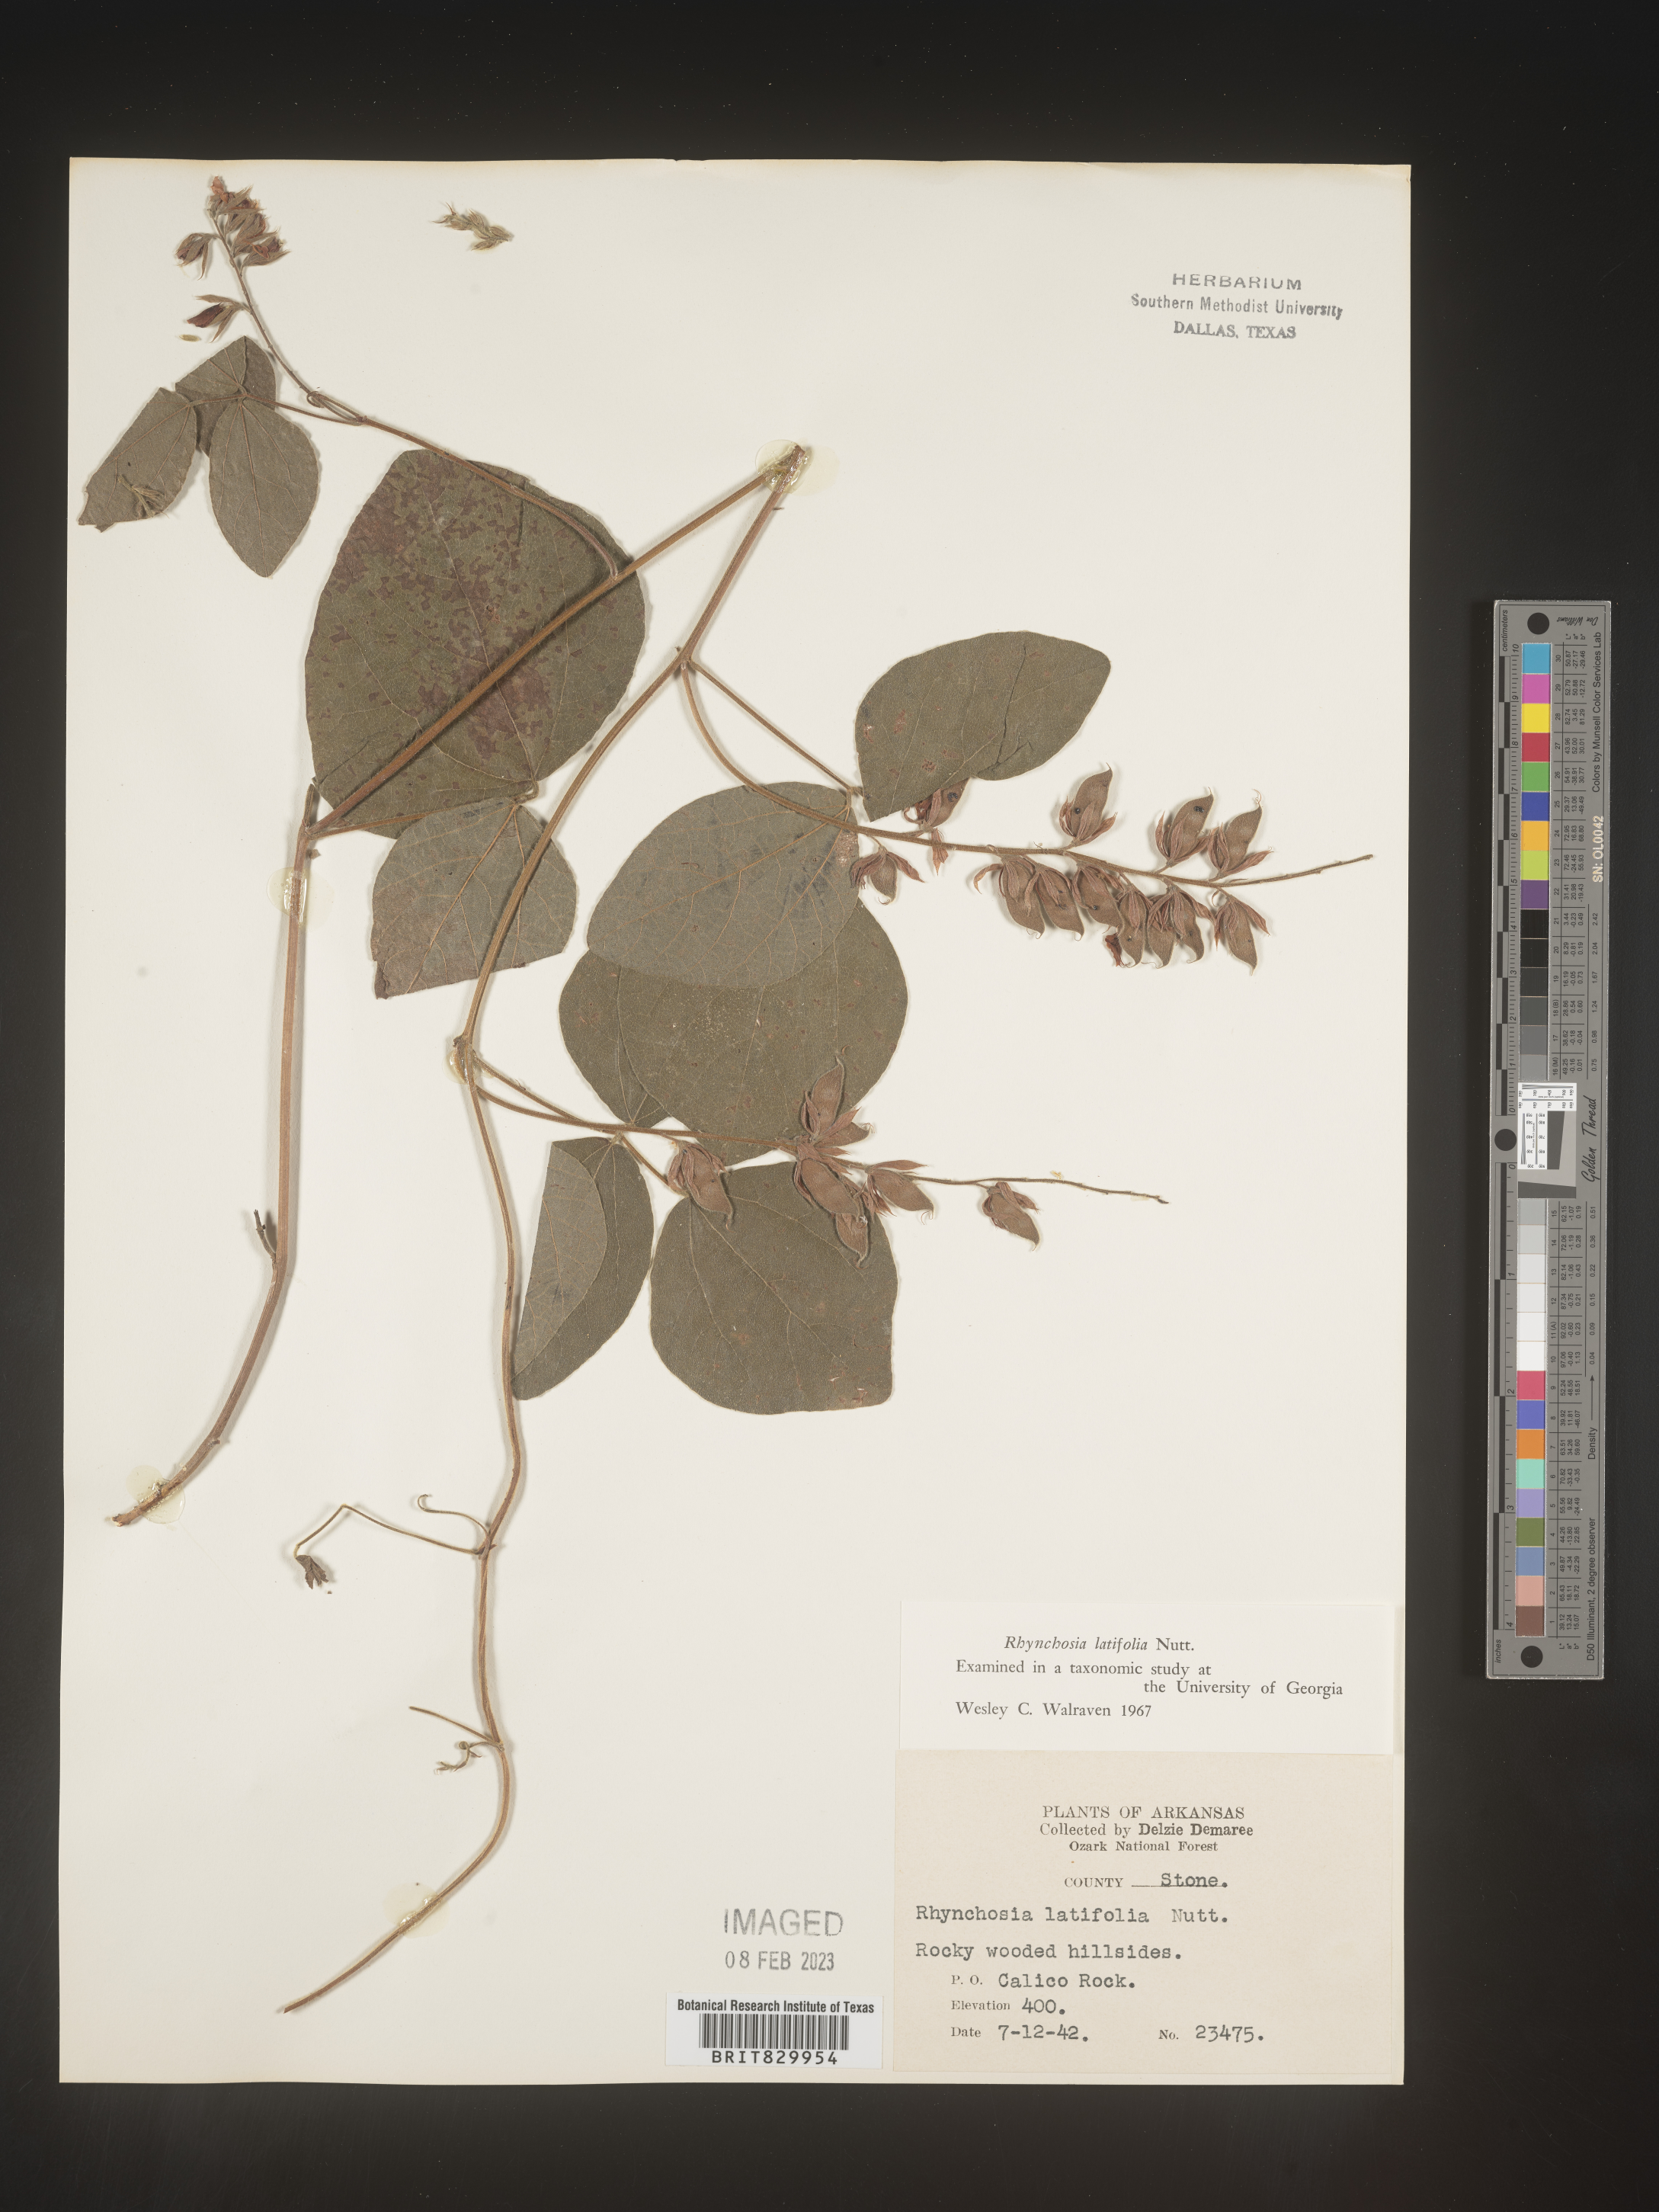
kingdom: Plantae
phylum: Tracheophyta
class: Magnoliopsida
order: Fabales
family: Fabaceae
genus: Rhynchosia
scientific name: Rhynchosia latifolia
